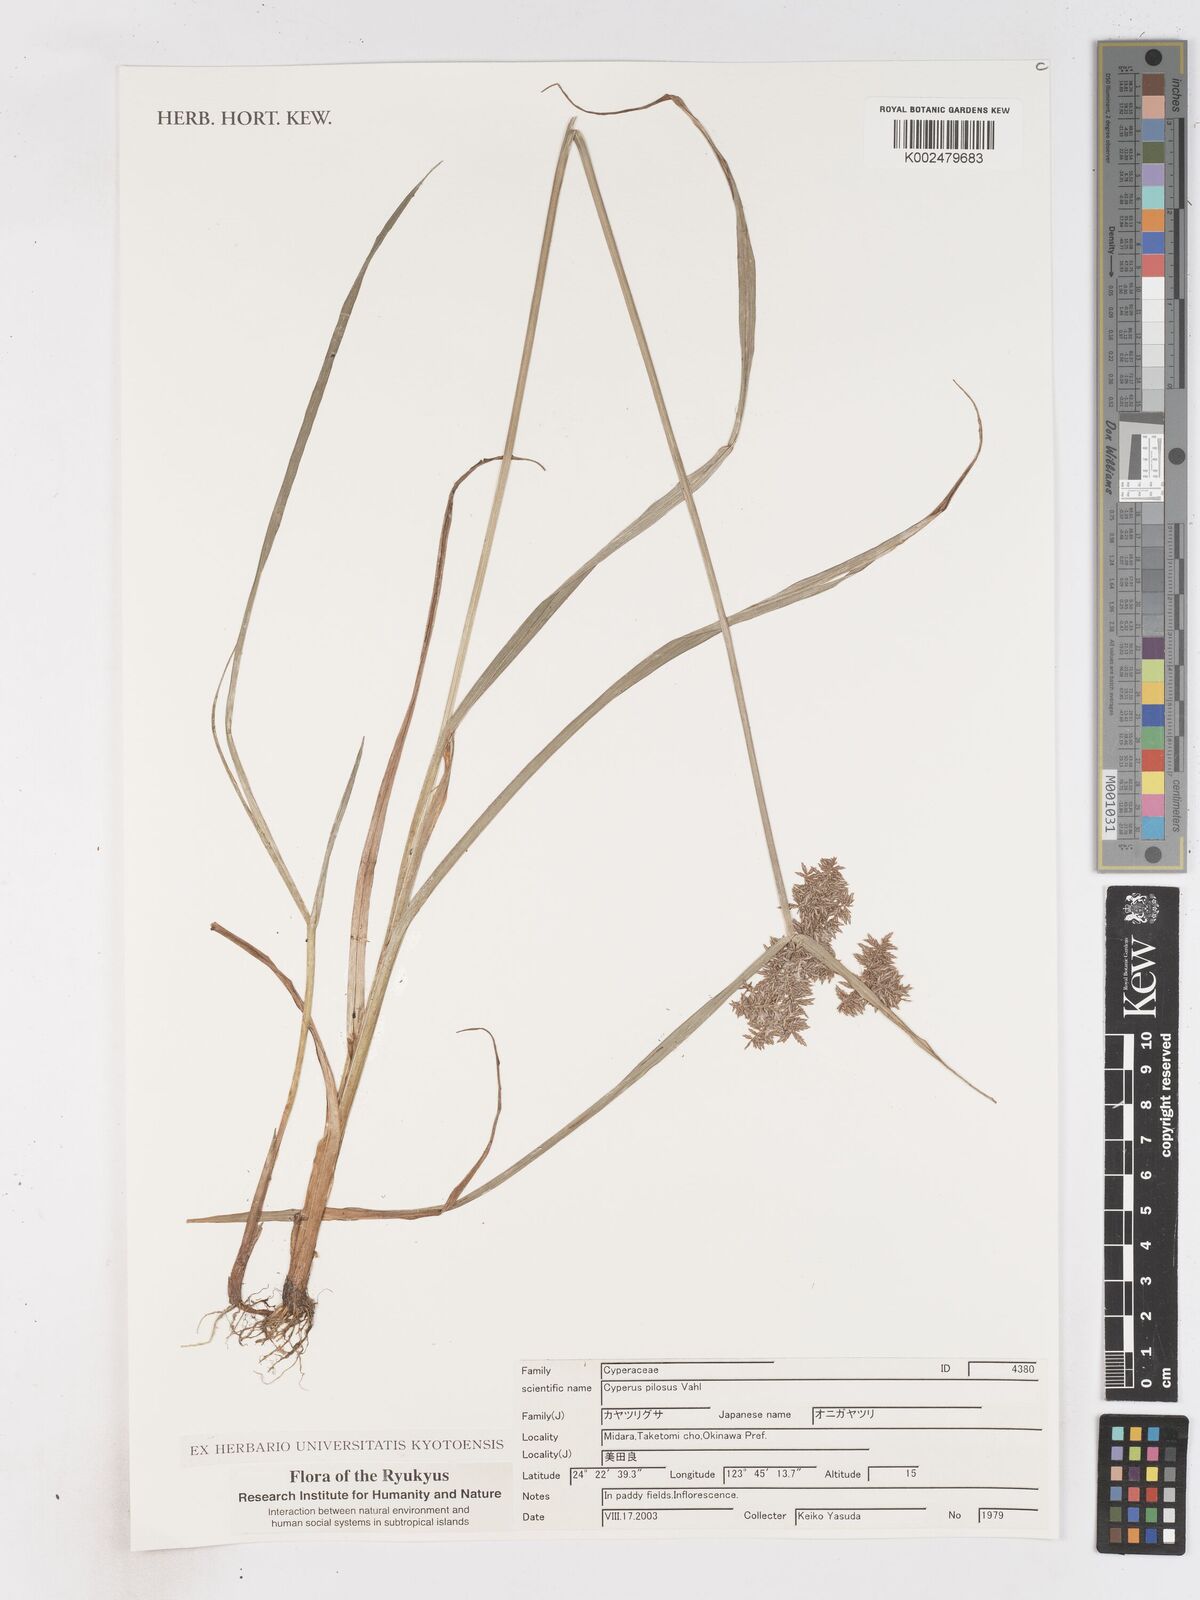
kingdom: Plantae
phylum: Tracheophyta
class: Liliopsida
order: Poales
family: Cyperaceae
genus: Cyperus
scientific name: Cyperus pilosus
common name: Fuzzy flatsedge
